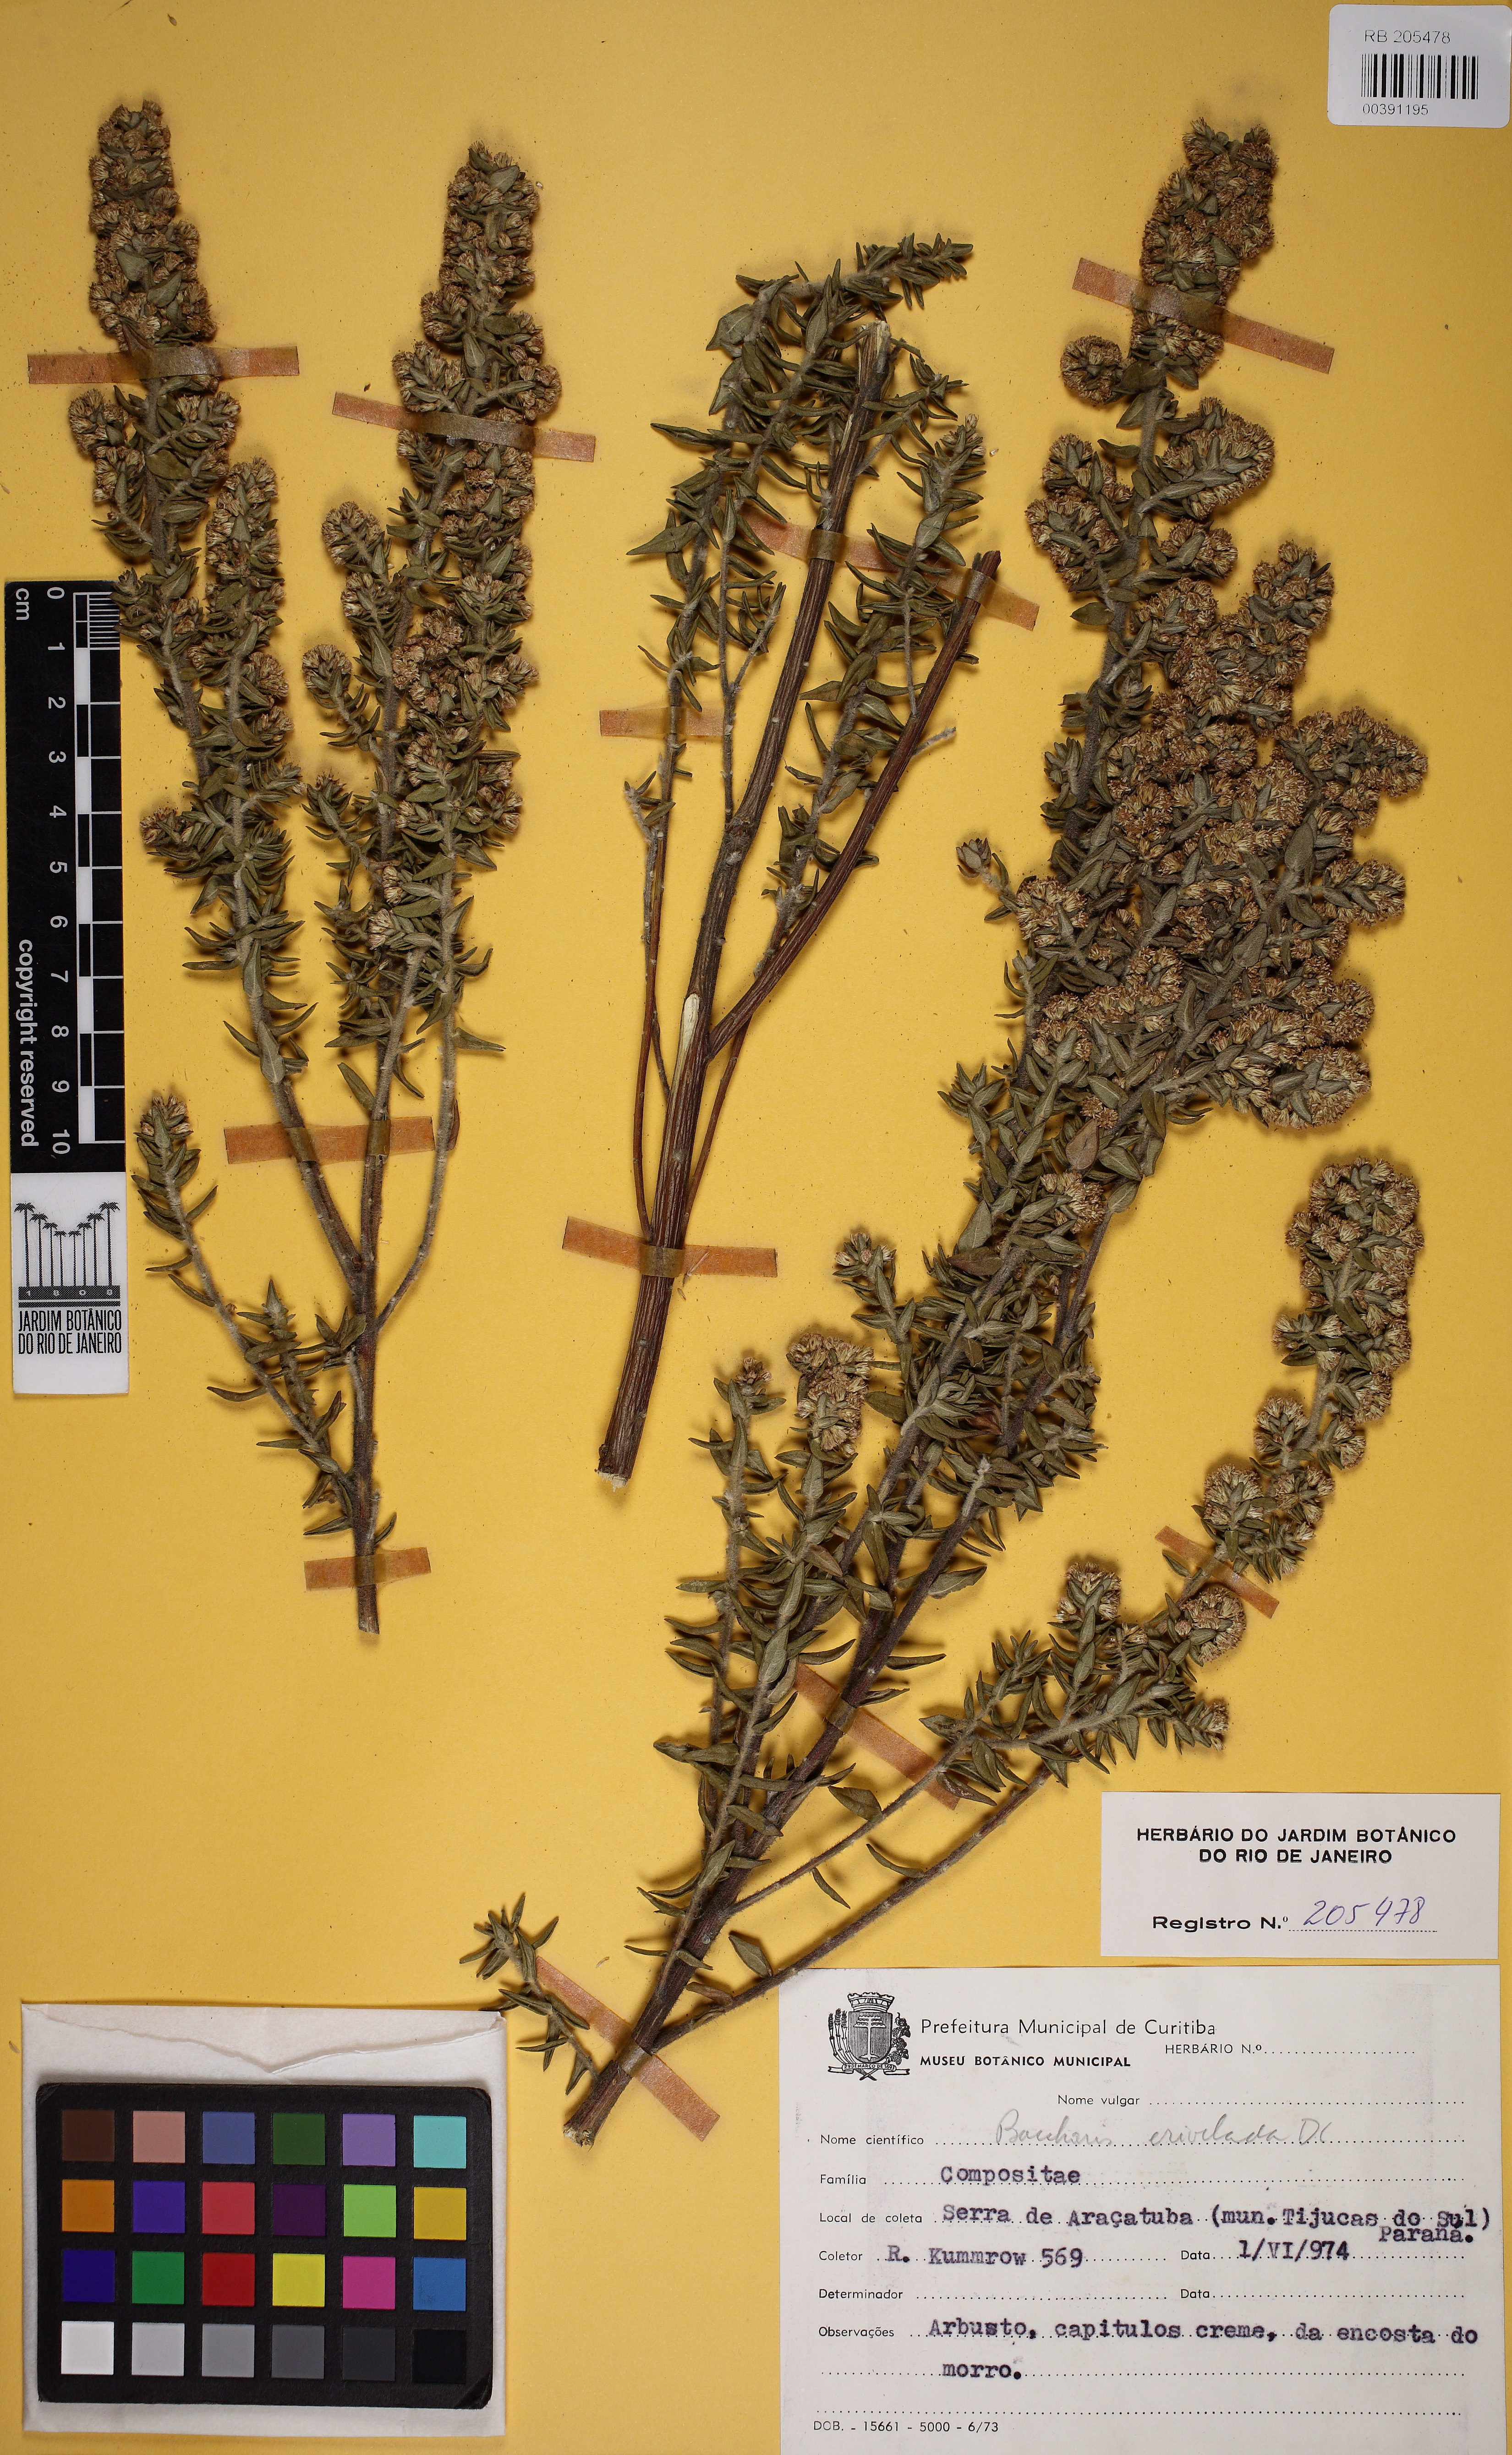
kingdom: Plantae
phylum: Tracheophyta
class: Magnoliopsida
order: Asterales
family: Asteraceae
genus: Baccharis
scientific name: Baccharis erioclada
